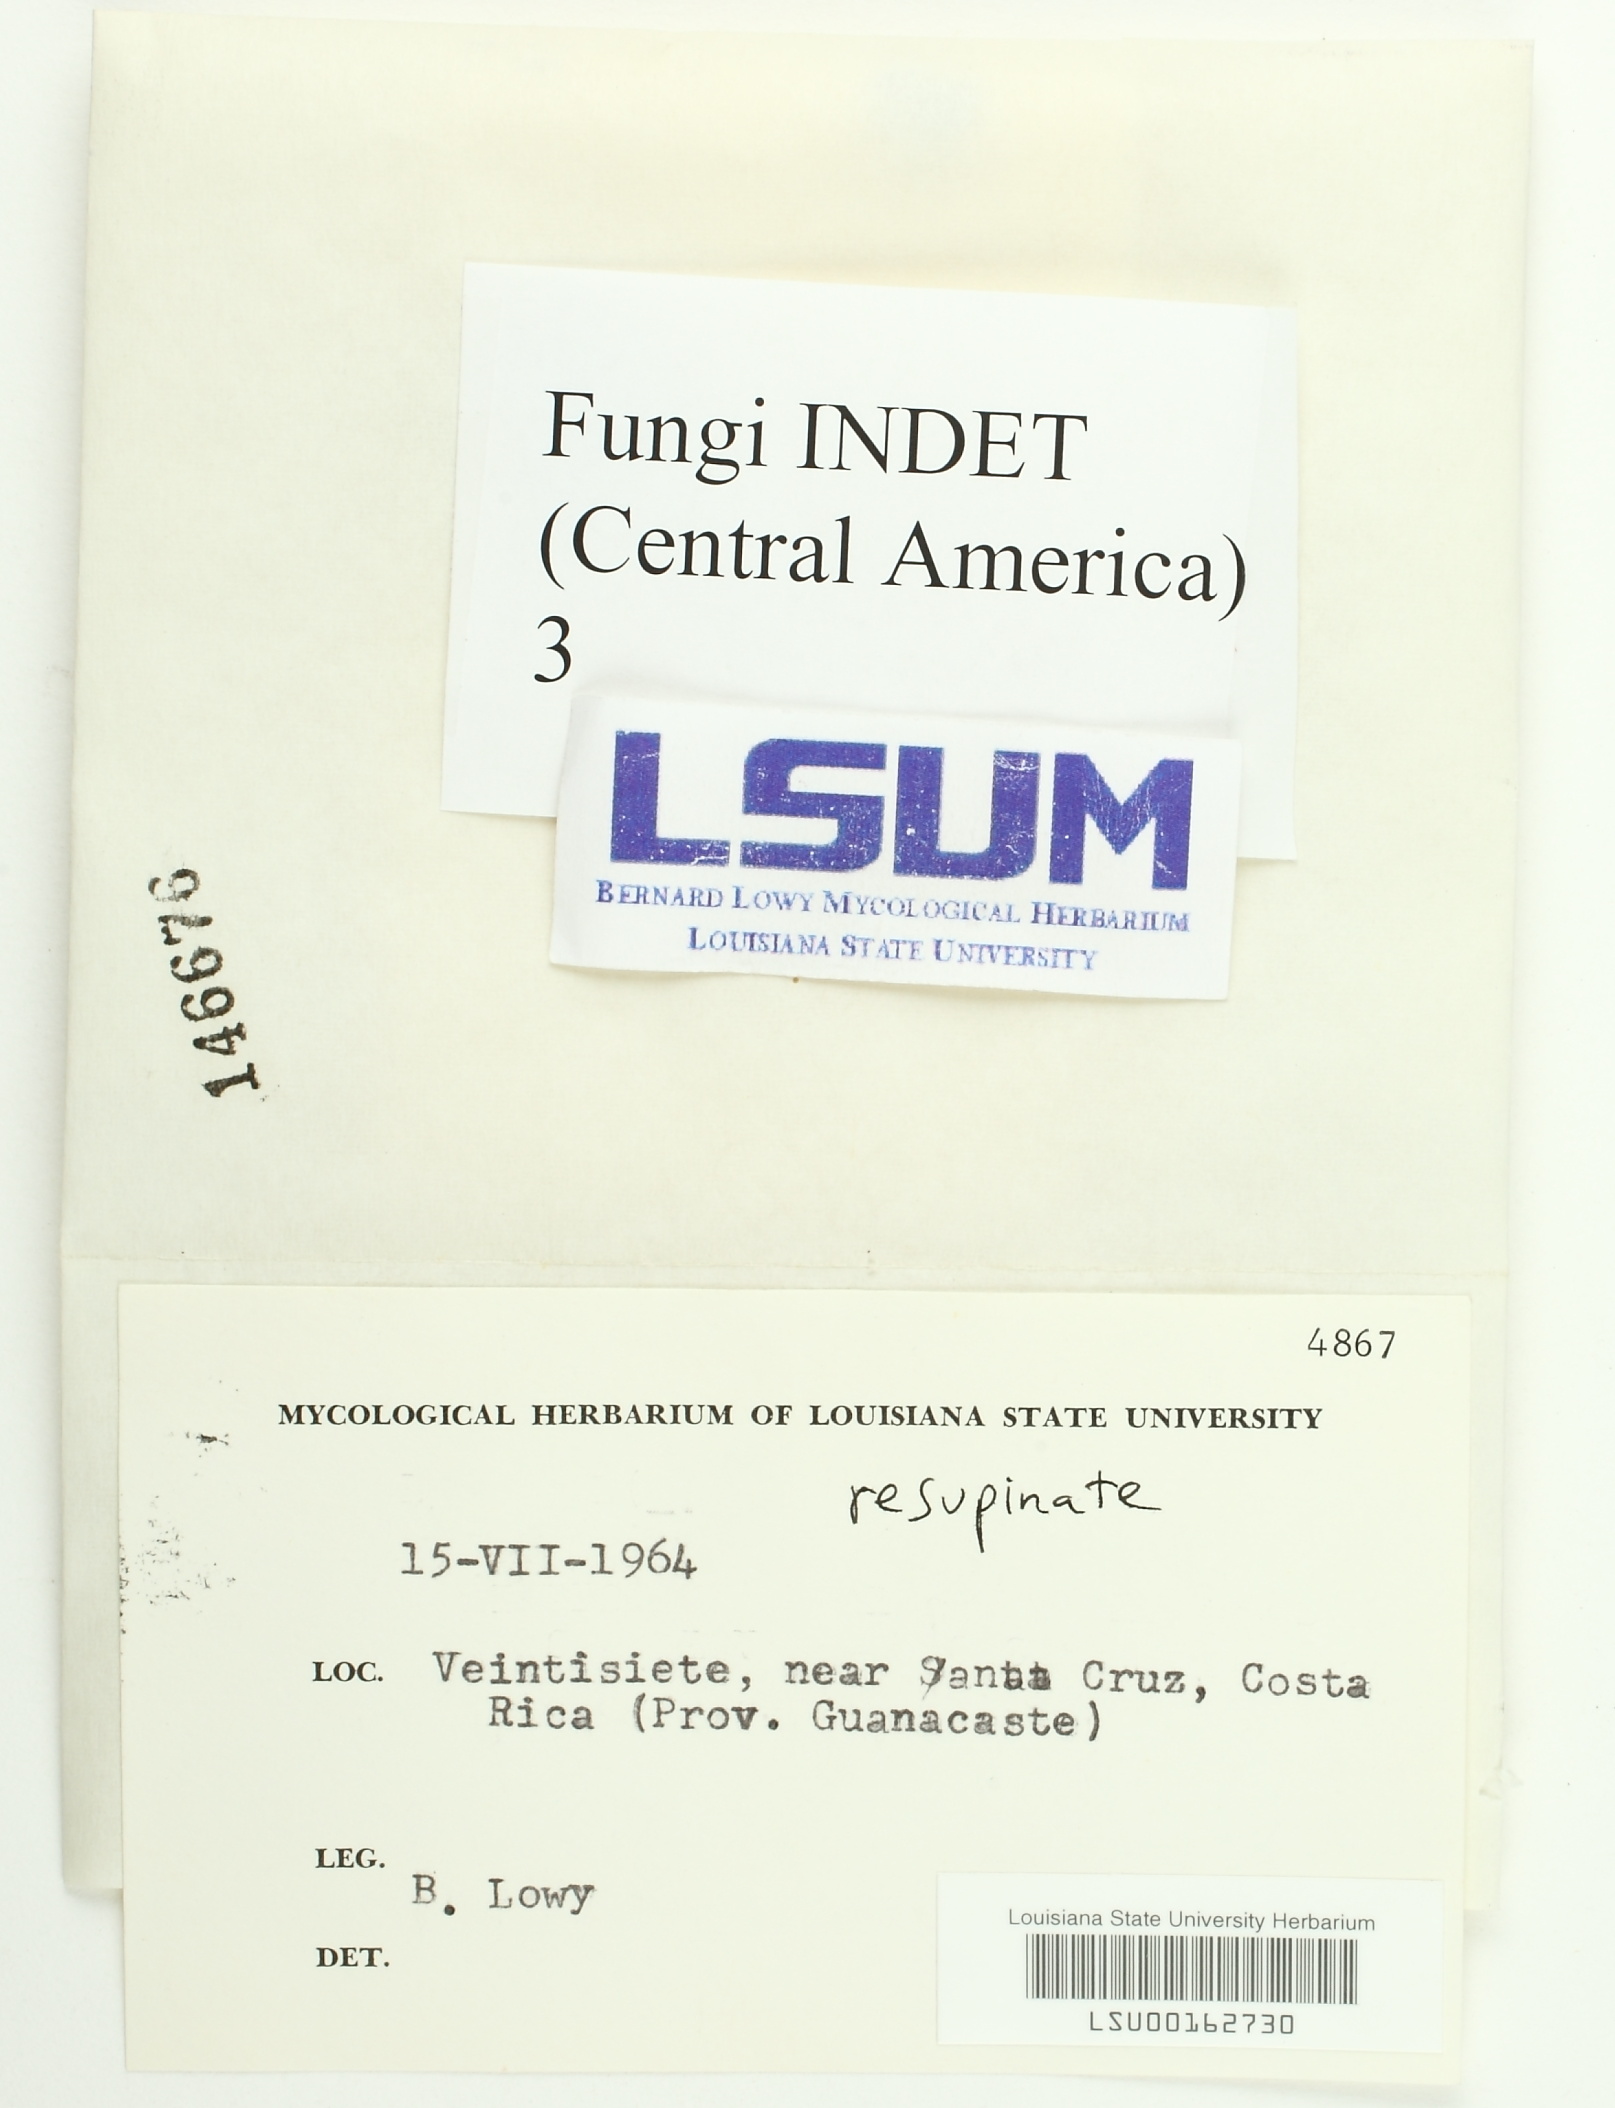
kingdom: Fungi
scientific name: Fungi
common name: Fungi
